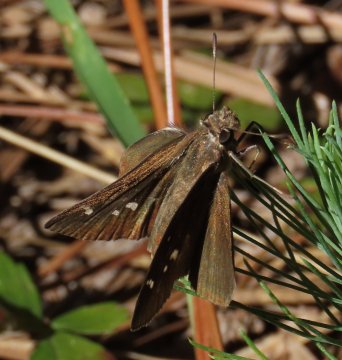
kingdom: Animalia
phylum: Arthropoda
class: Insecta
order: Lepidoptera
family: Hesperiidae
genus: Panoquina
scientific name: Panoquina ocola
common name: Ocola Skipper
